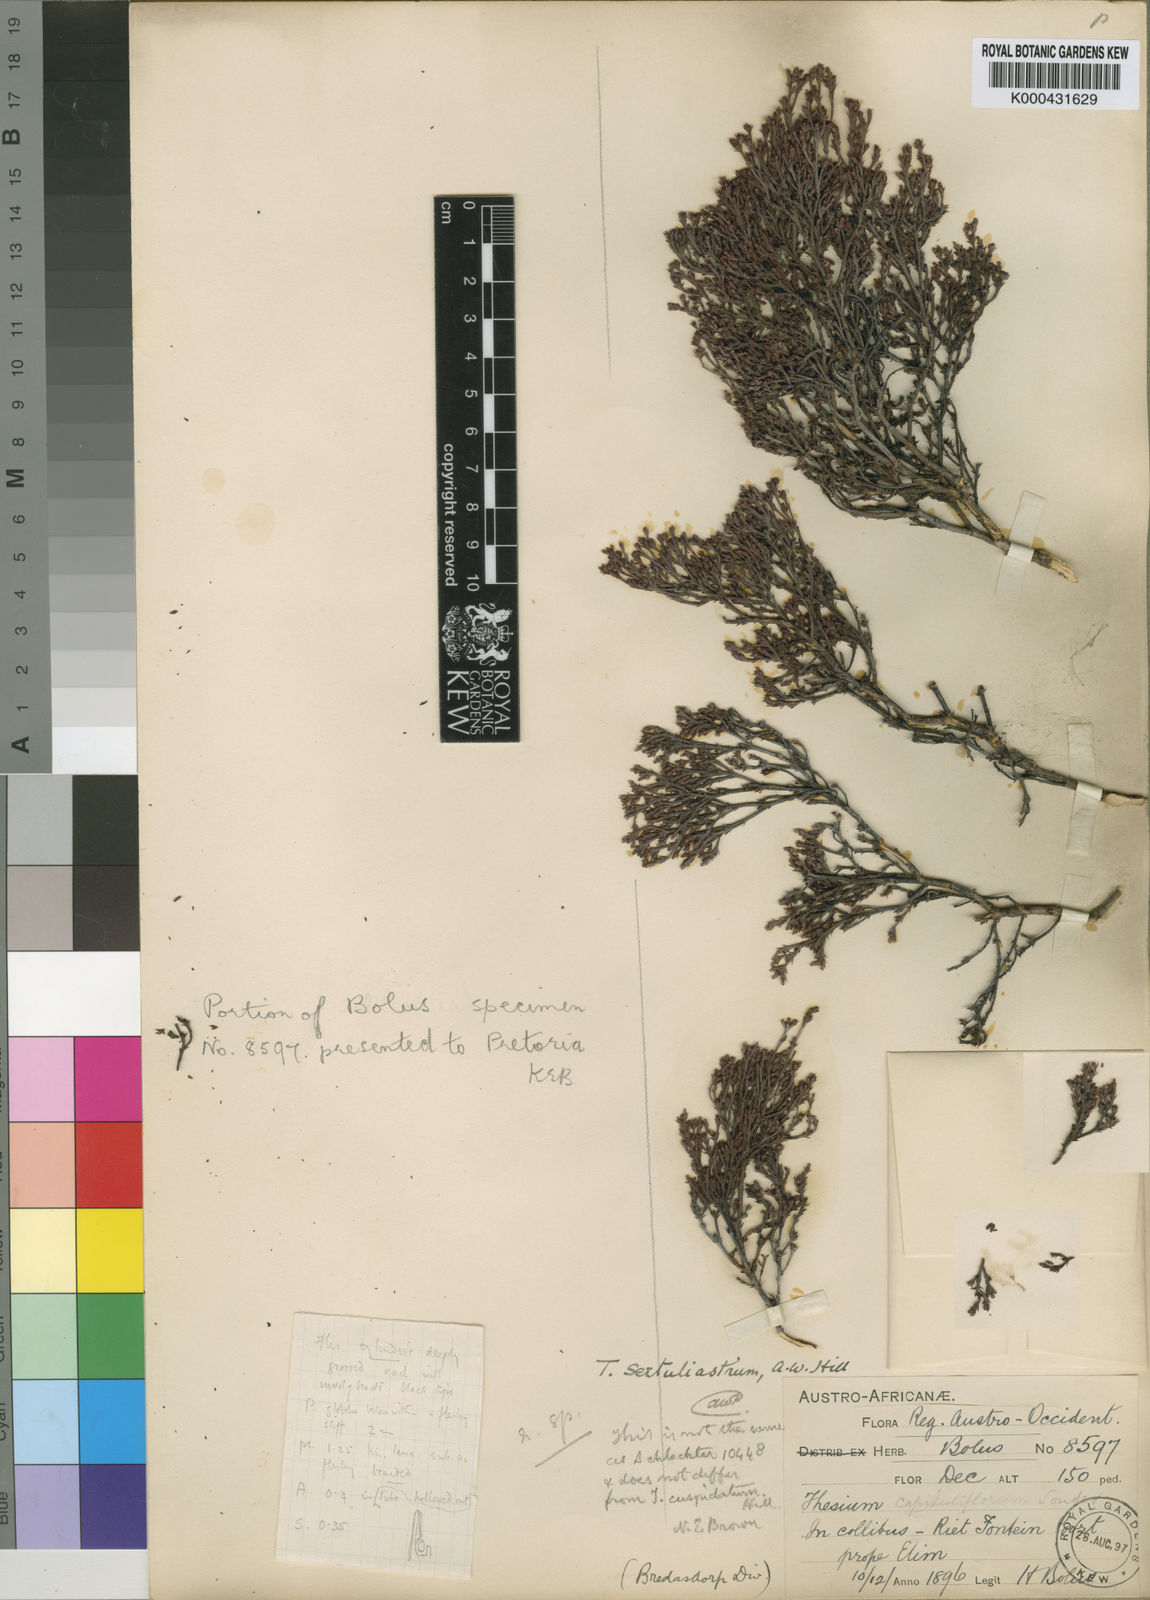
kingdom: Plantae
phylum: Tracheophyta
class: Magnoliopsida
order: Santalales
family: Thesiaceae
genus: Thesium
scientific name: Thesium sertulariastrum
